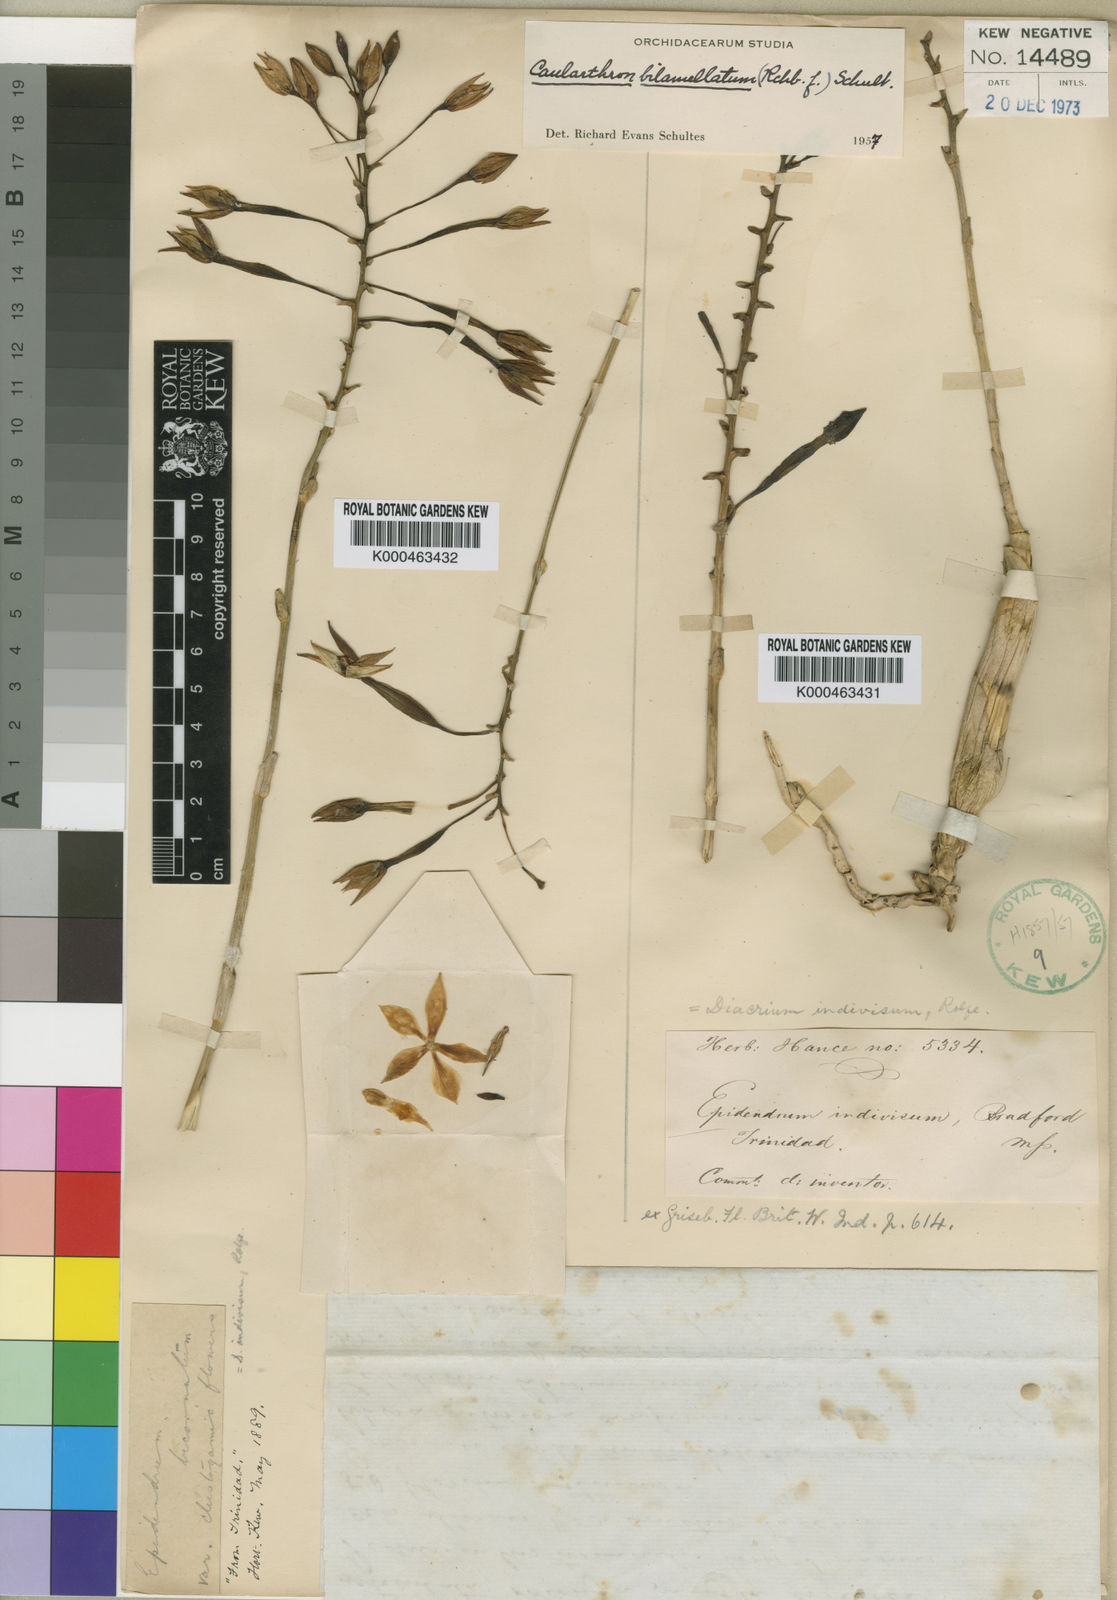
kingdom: Plantae
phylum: Tracheophyta
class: Liliopsida
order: Asparagales
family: Orchidaceae
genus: Caularthron
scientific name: Caularthron bilamellatum
